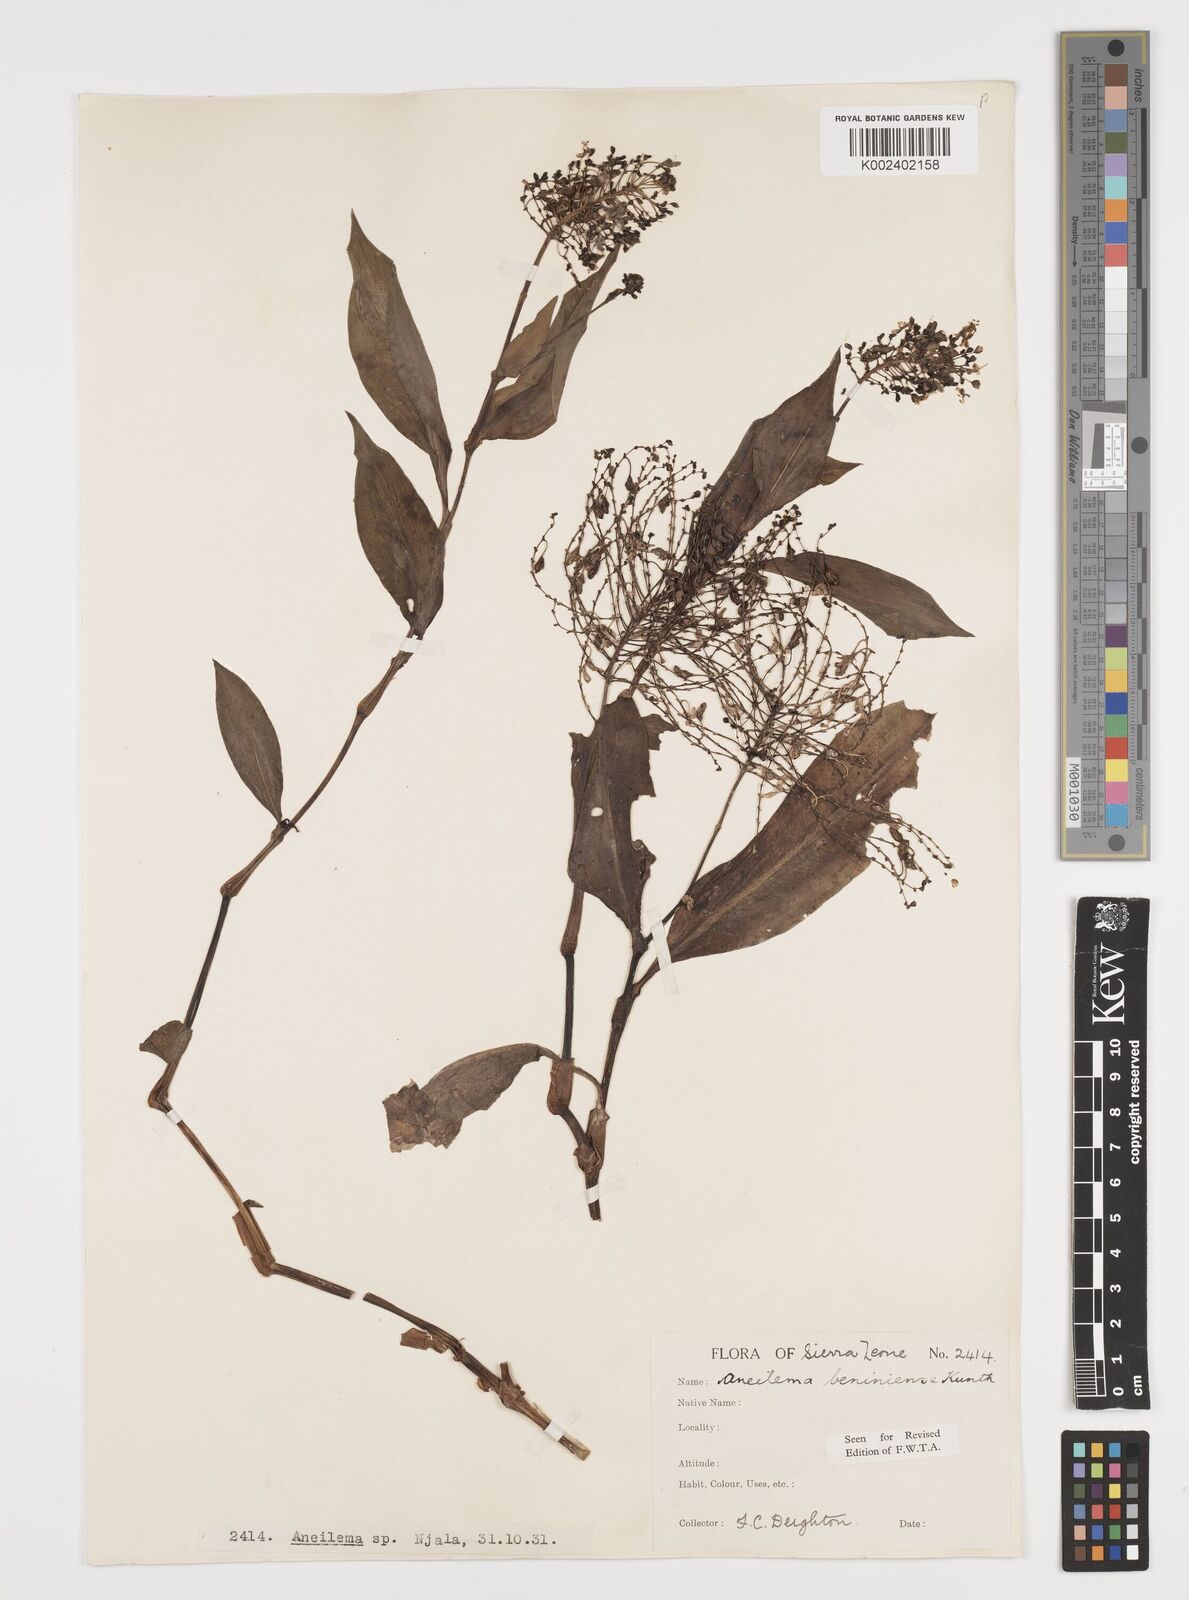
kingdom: Plantae
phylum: Tracheophyta
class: Liliopsida
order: Commelinales
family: Commelinaceae
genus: Aneilema
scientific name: Aneilema beniniense
